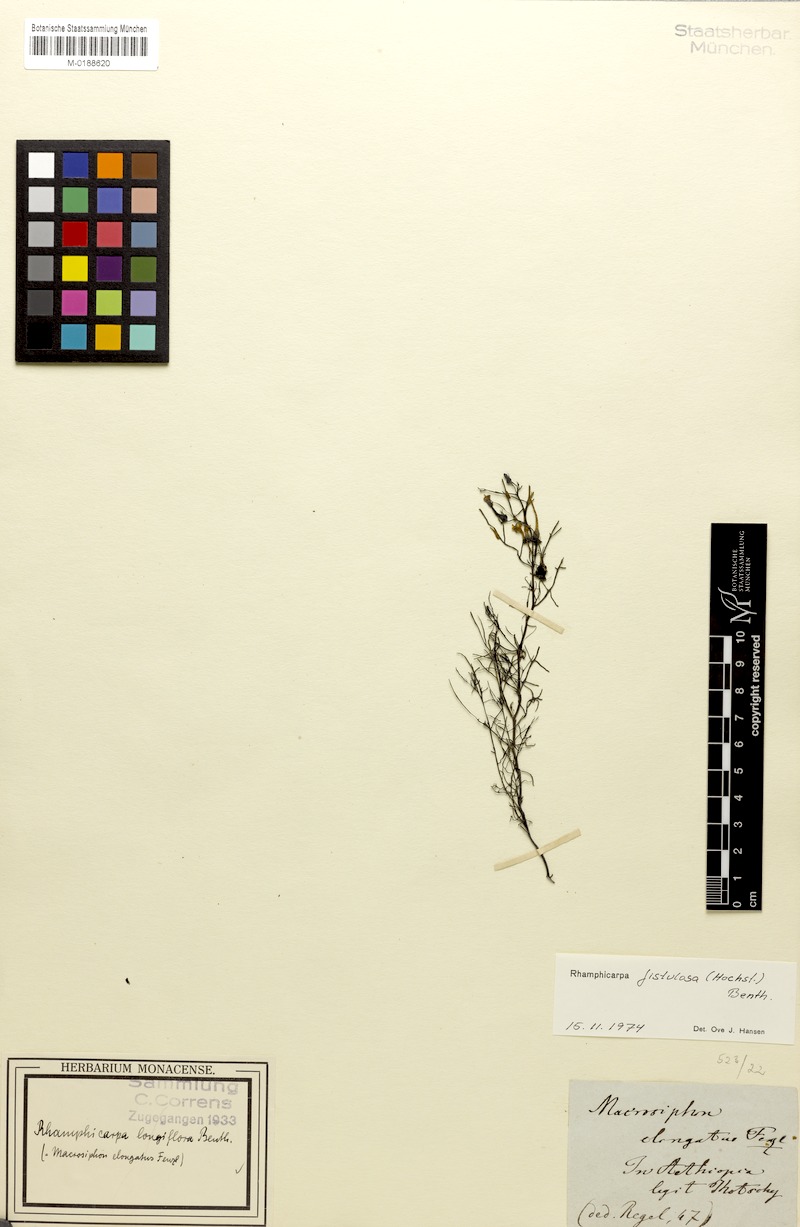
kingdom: Plantae
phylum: Tracheophyta
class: Magnoliopsida
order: Lamiales
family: Orobanchaceae
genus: Rhamphicarpa
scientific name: Rhamphicarpa fistulosa
